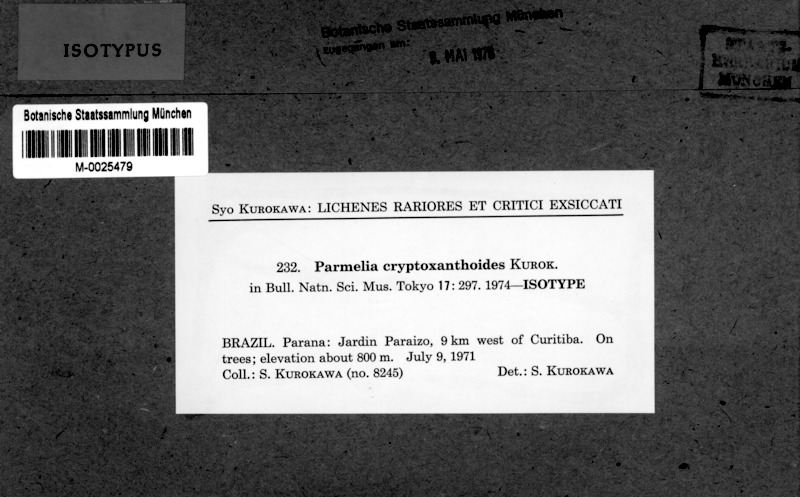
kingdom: Fungi
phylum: Ascomycota
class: Lecanoromycetes
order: Lecanorales
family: Parmeliaceae
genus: Parmelia
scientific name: Parmelia cryptoxanthoides
